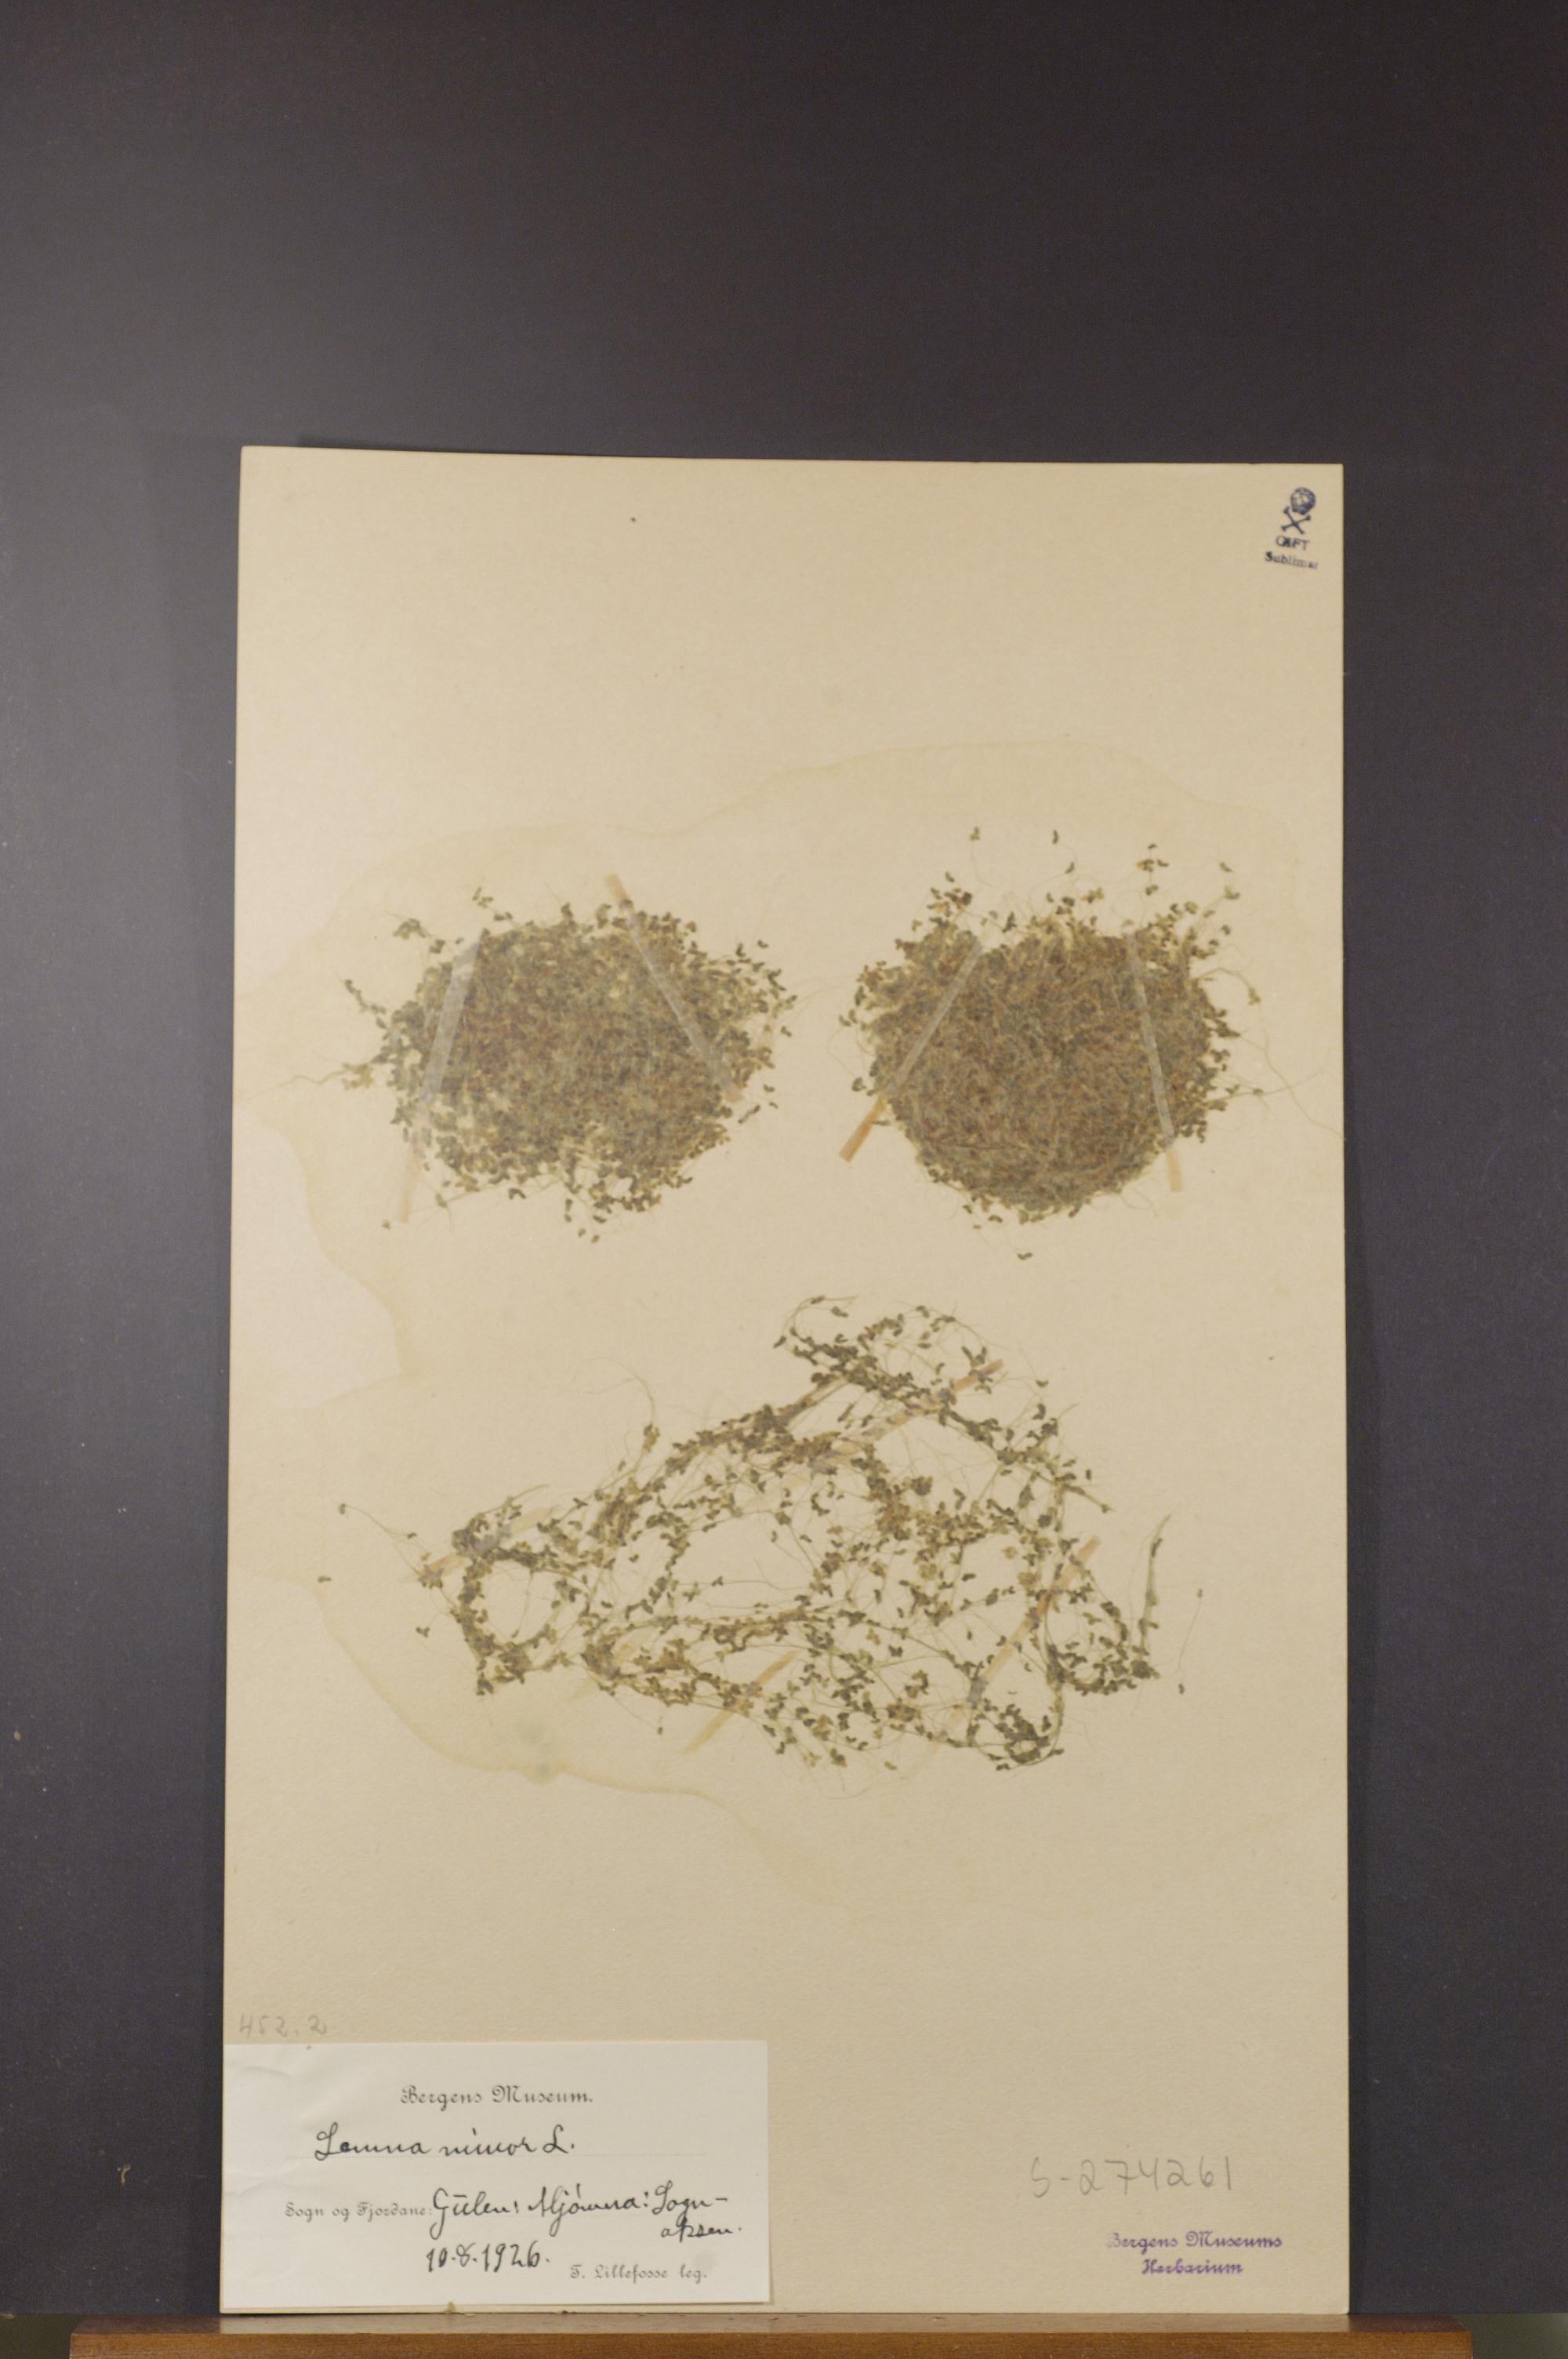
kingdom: Plantae
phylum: Tracheophyta
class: Liliopsida
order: Alismatales
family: Araceae
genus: Lemna
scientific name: Lemna minor
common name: Common duckweed
